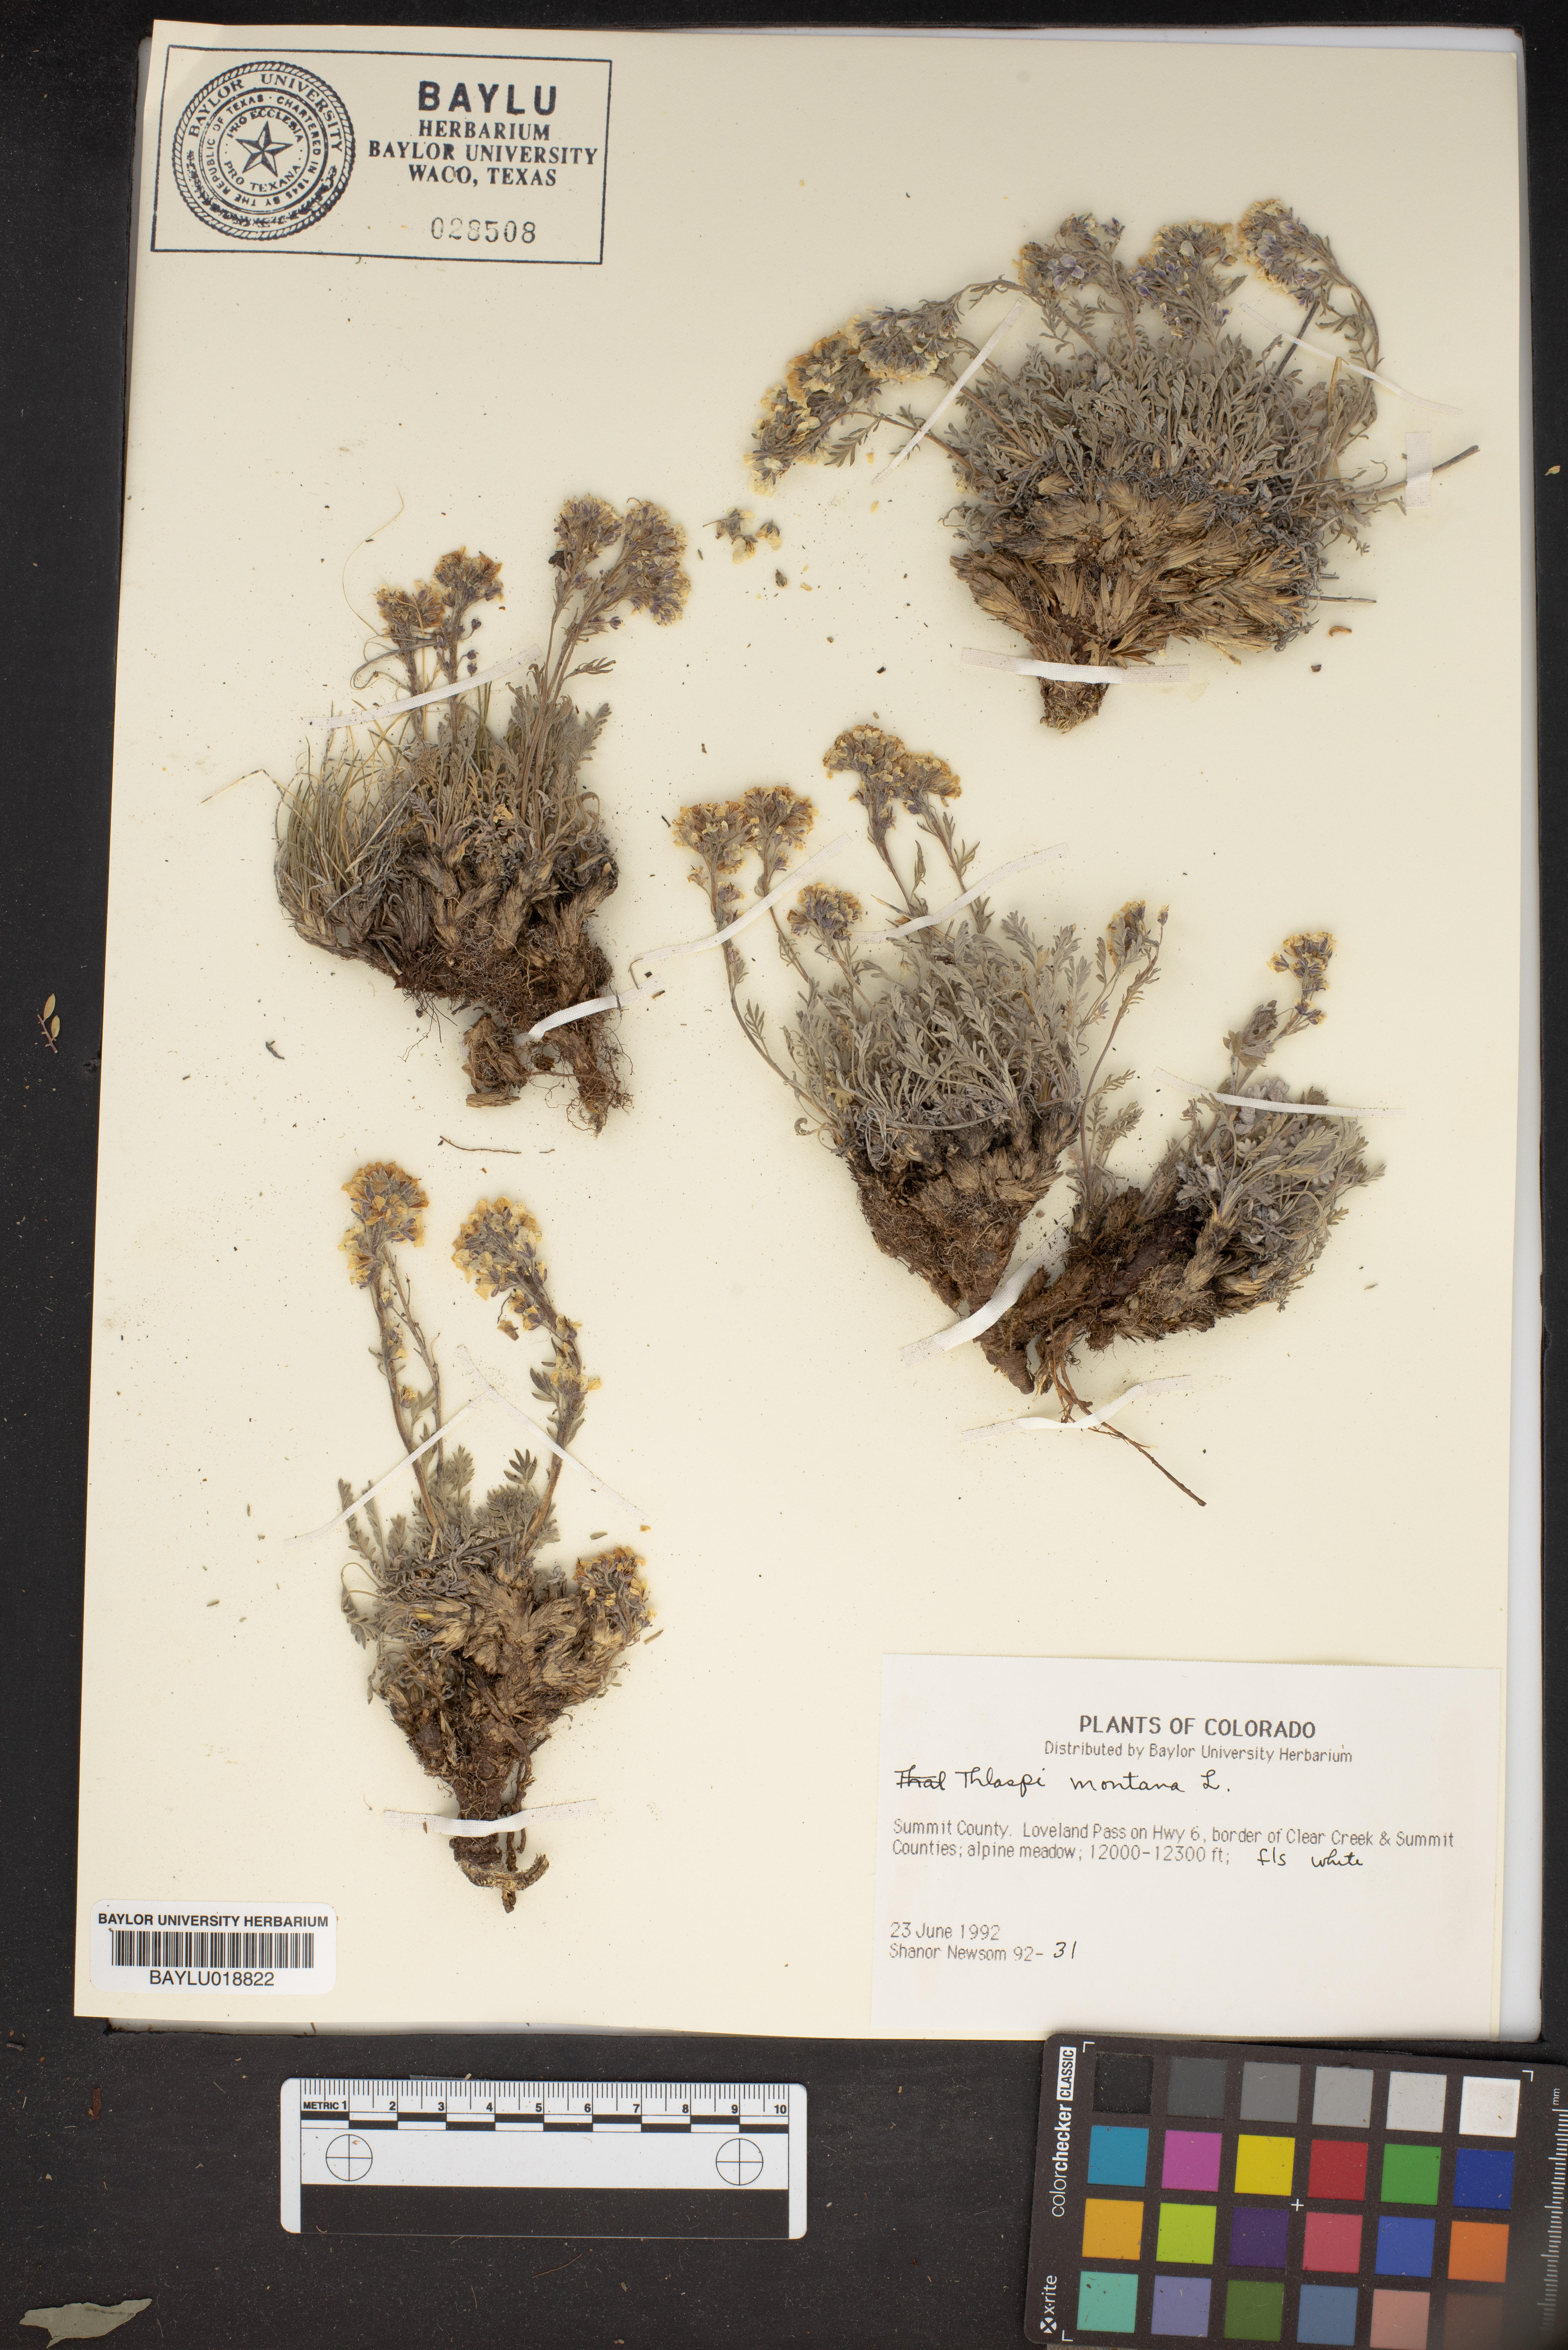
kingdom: Plantae
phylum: Tracheophyta
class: Magnoliopsida
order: Brassicales
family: Brassicaceae
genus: Noccaea
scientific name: Noccaea montana
